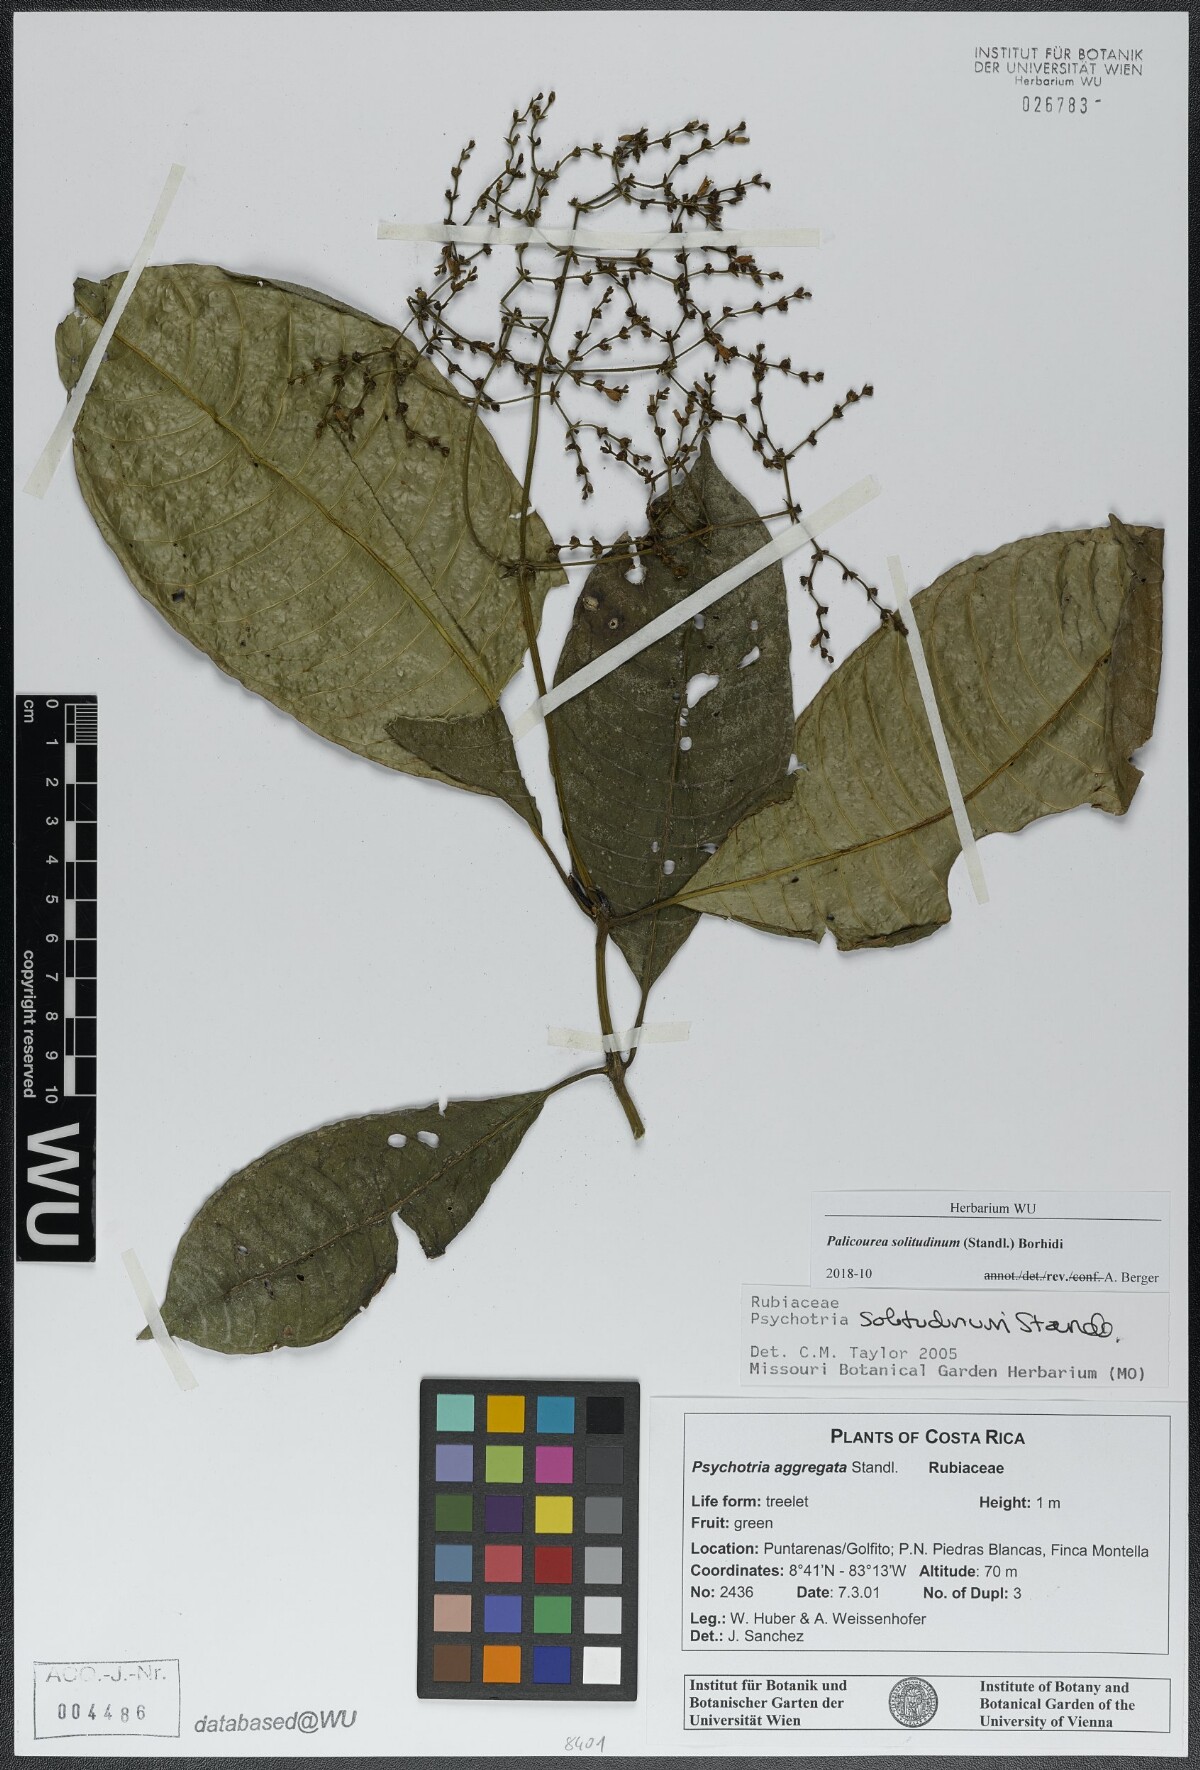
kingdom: Plantae
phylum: Tracheophyta
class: Magnoliopsida
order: Gentianales
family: Rubiaceae
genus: Palicourea
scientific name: Palicourea solitudinum
